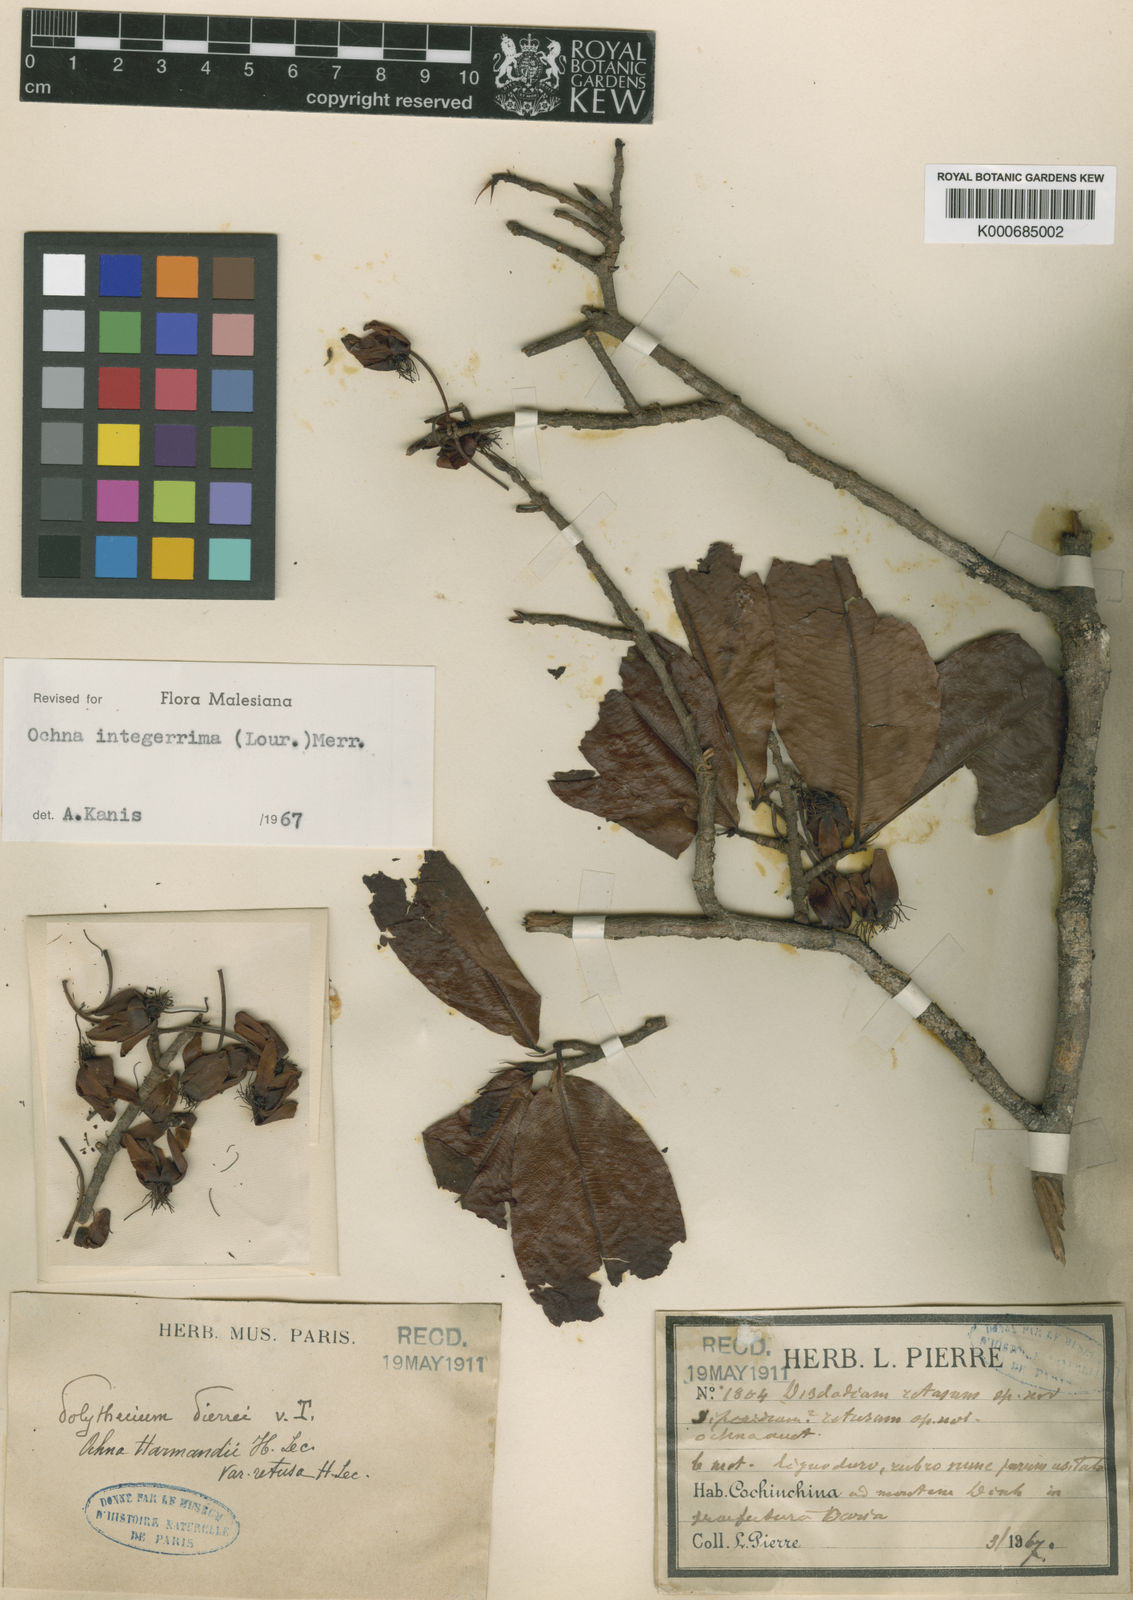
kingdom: Plantae
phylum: Tracheophyta
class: Magnoliopsida
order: Malpighiales
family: Ochnaceae
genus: Ochna
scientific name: Ochna integerrima
